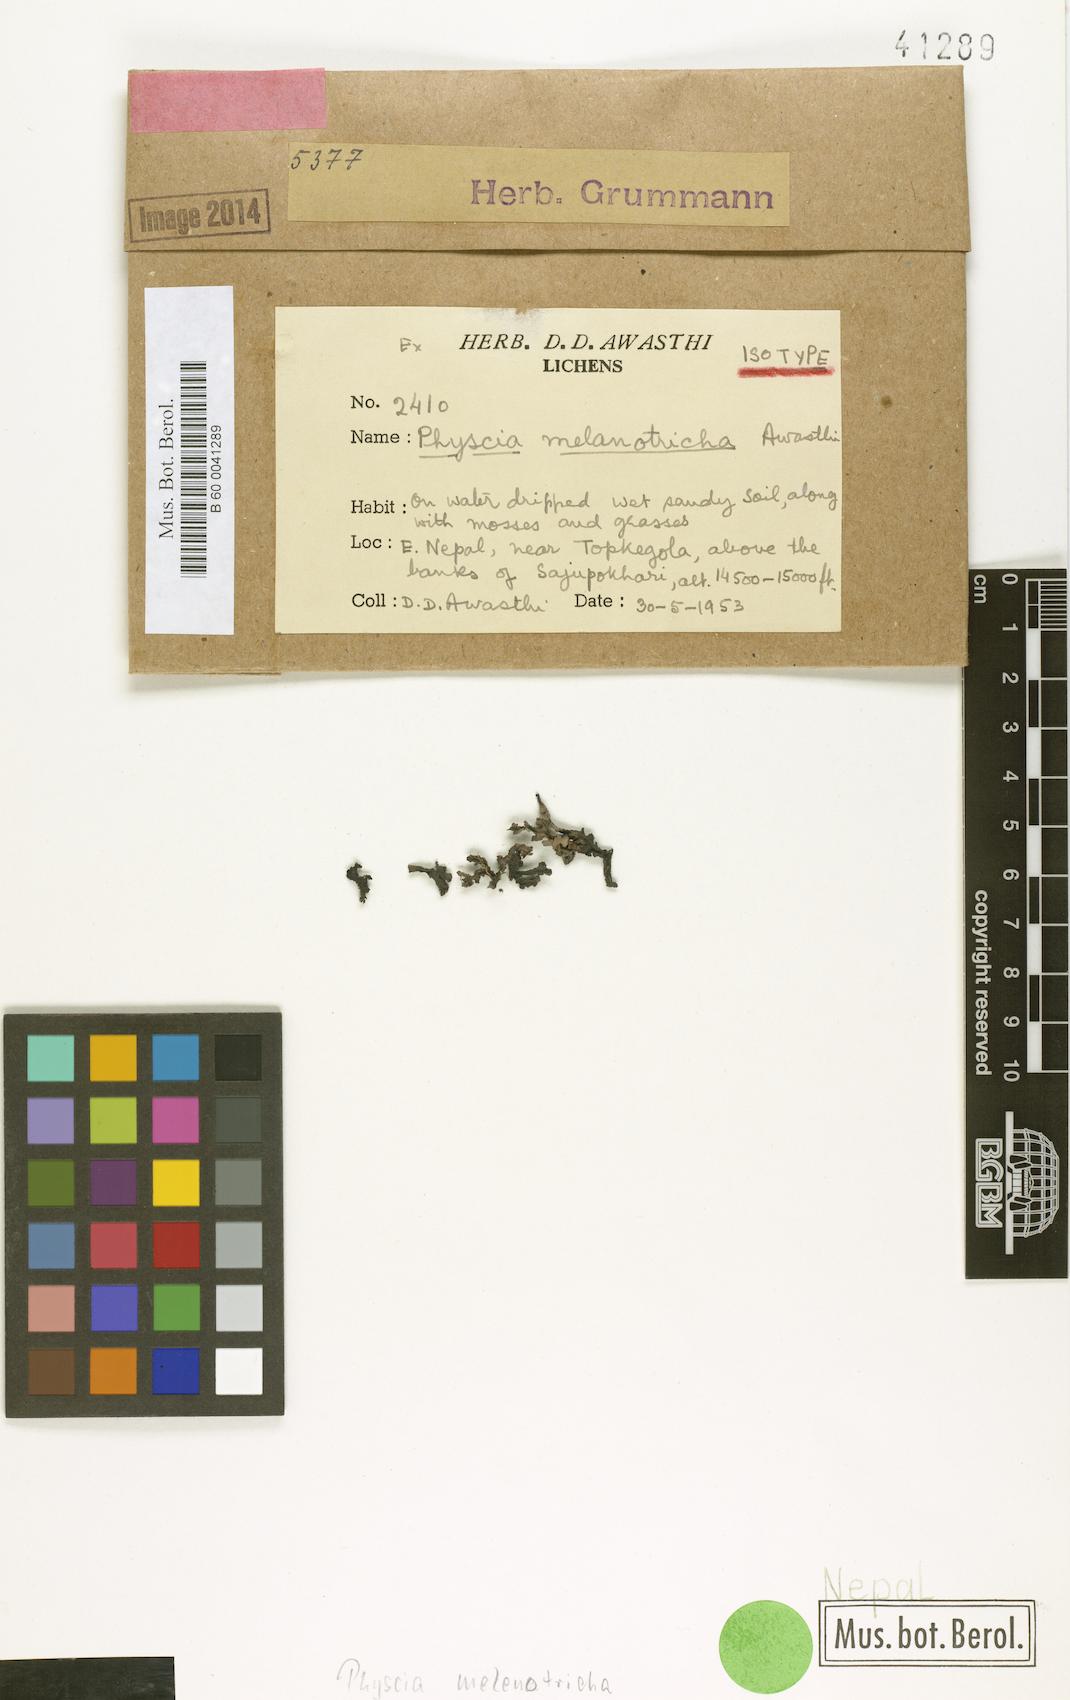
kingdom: Fungi
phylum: Ascomycota
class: Lecanoromycetes
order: Caliciales
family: Physciaceae
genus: Awasthia
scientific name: Awasthia melanotricha
